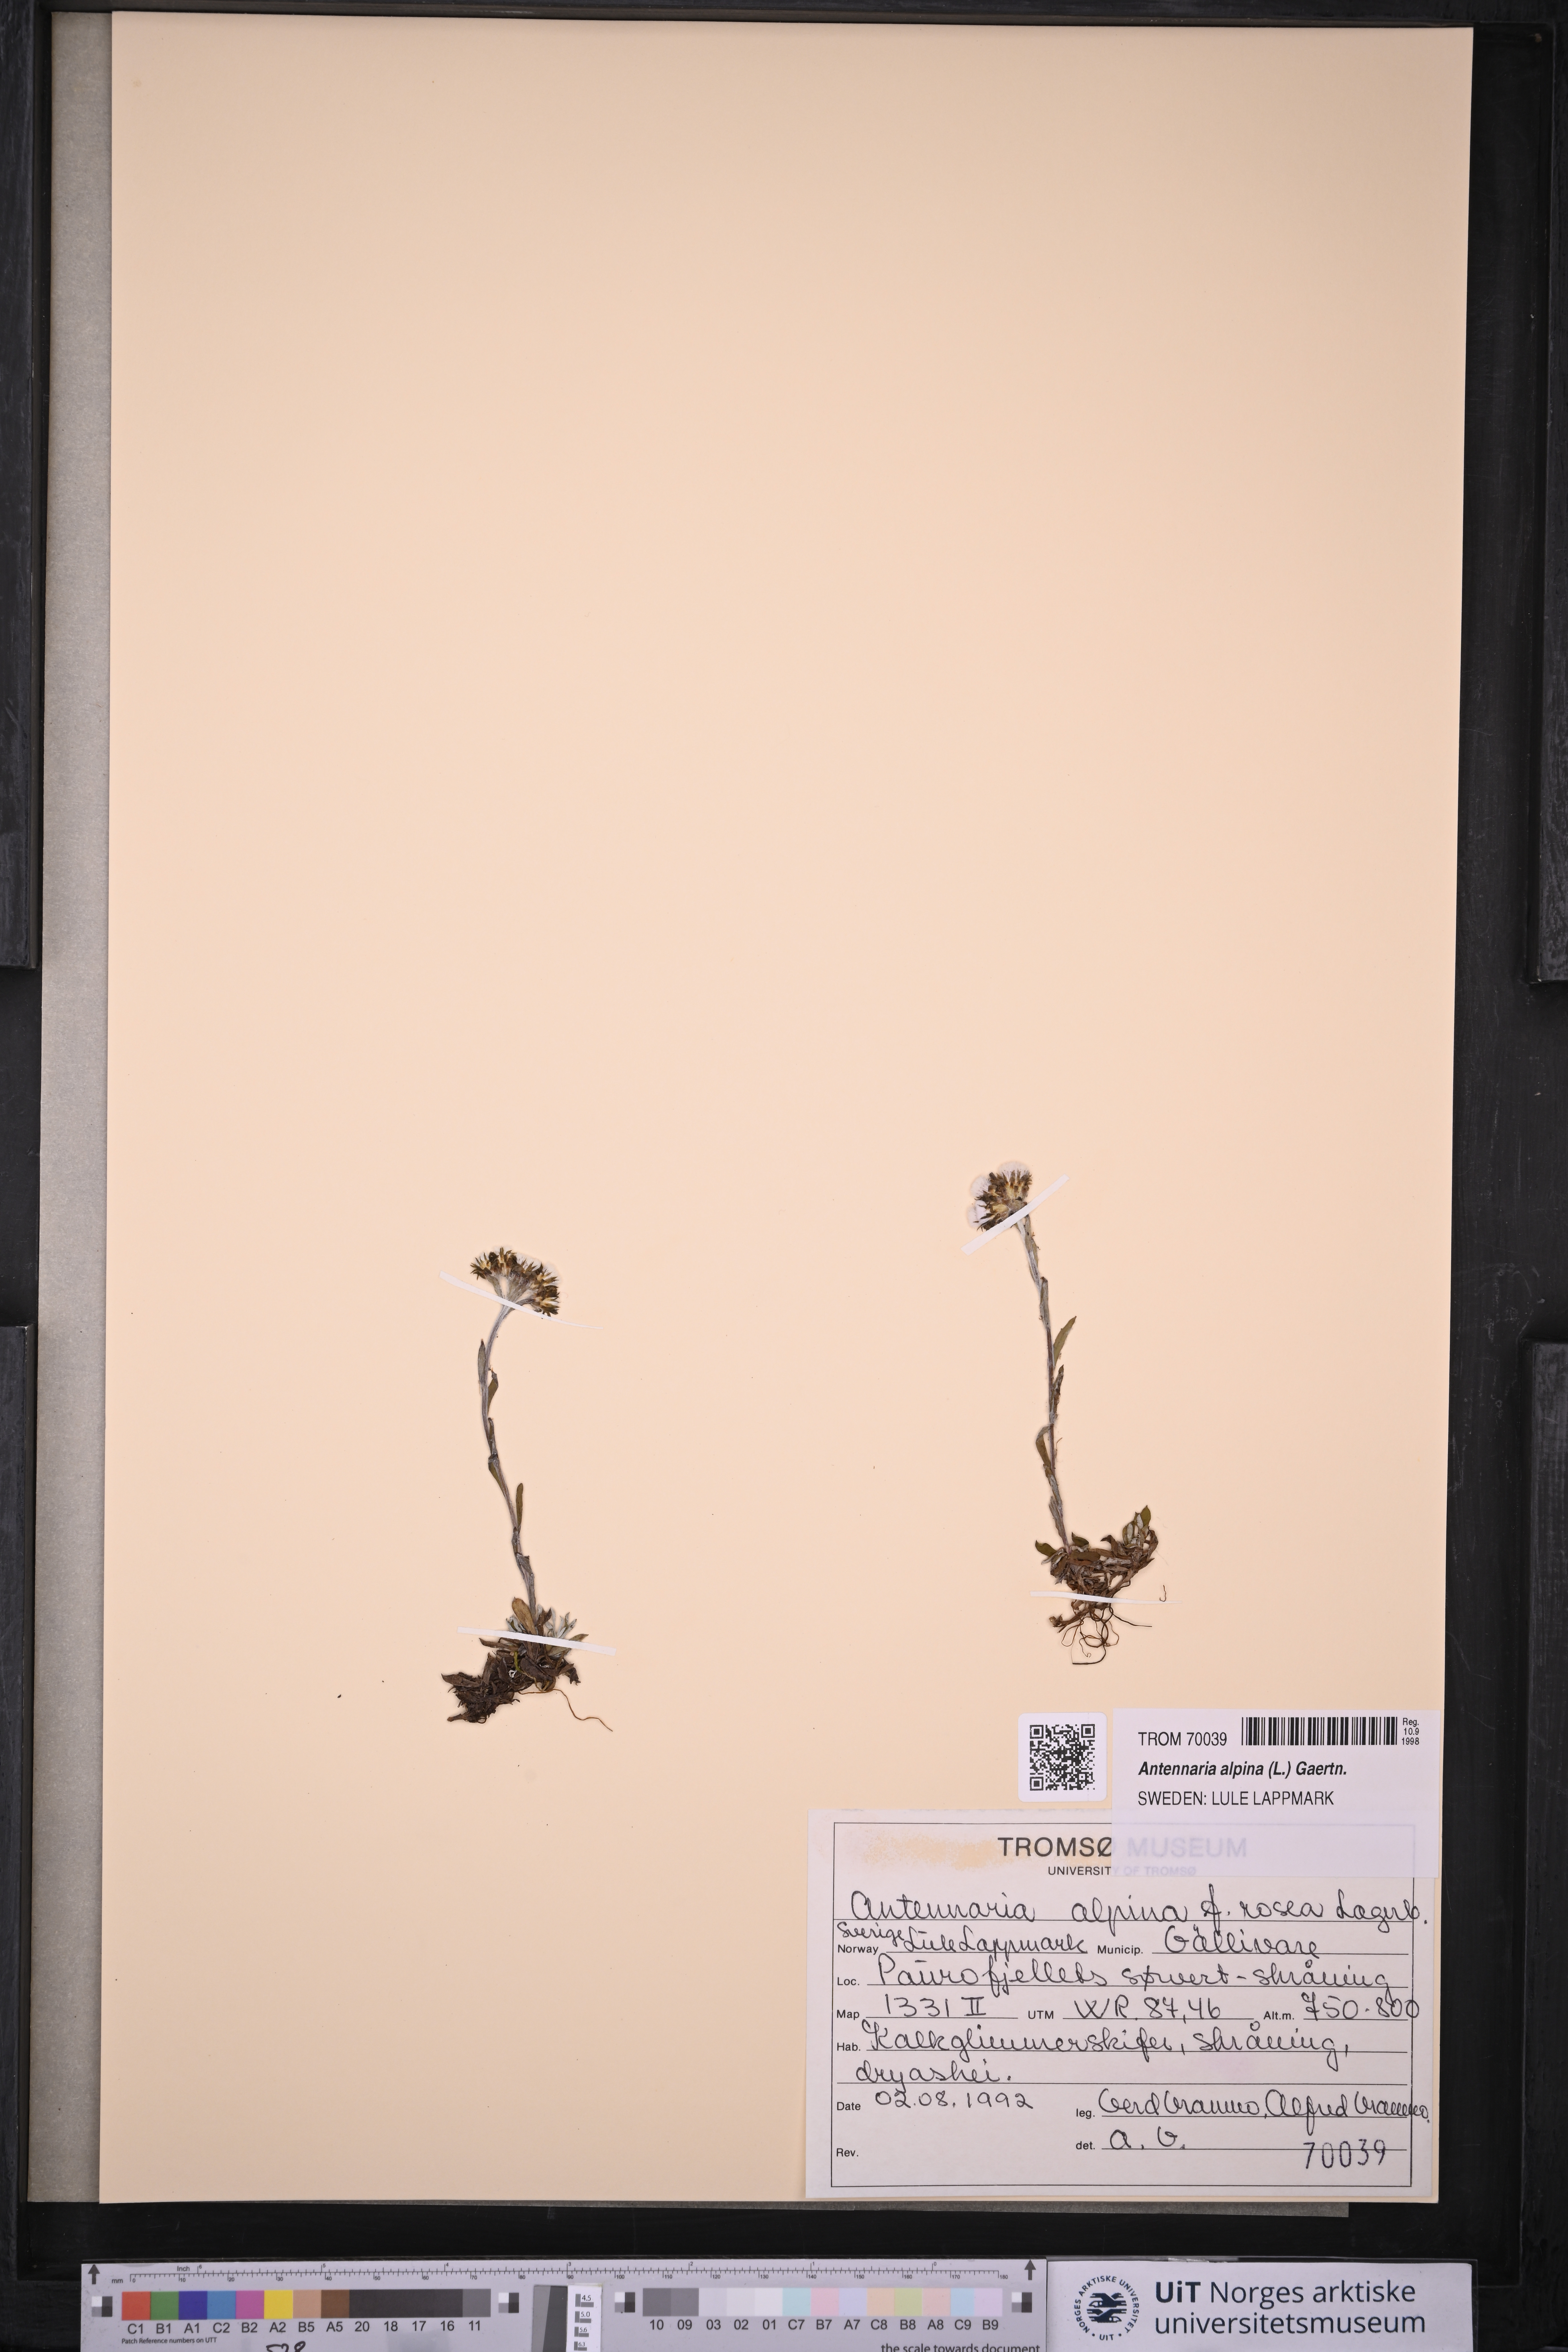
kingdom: Plantae
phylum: Tracheophyta
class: Magnoliopsida
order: Asterales
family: Asteraceae
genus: Antennaria
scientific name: Antennaria alpina
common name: Alpine pussytoes
